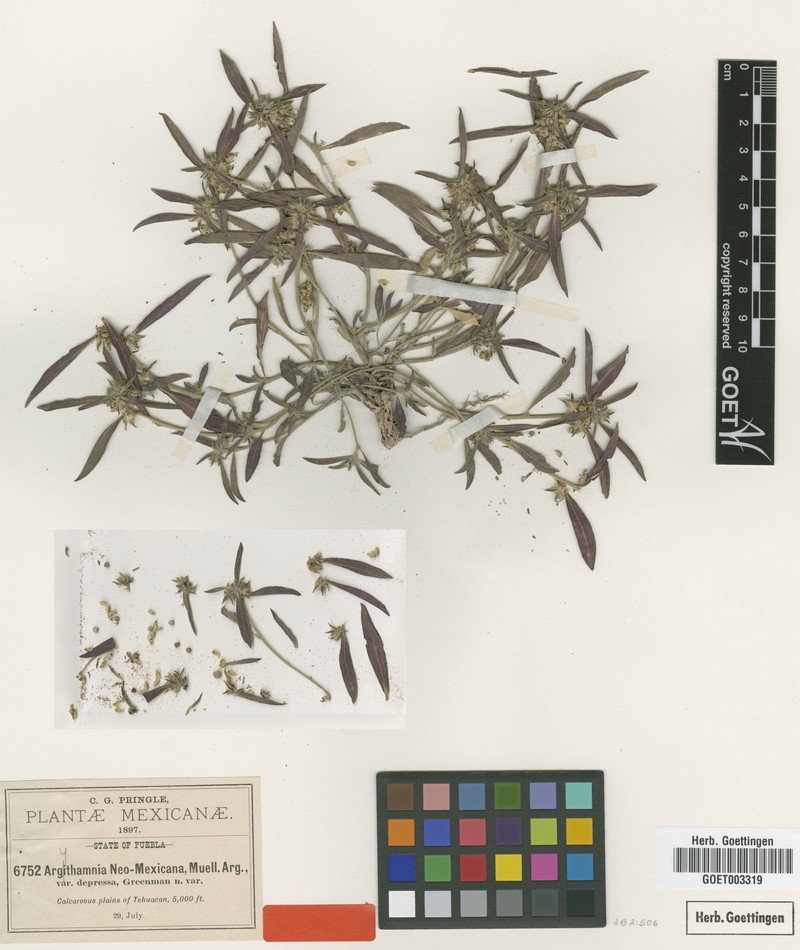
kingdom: Plantae
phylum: Tracheophyta
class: Magnoliopsida
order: Malpighiales
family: Euphorbiaceae
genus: Ditaxis
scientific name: Ditaxis serrata
